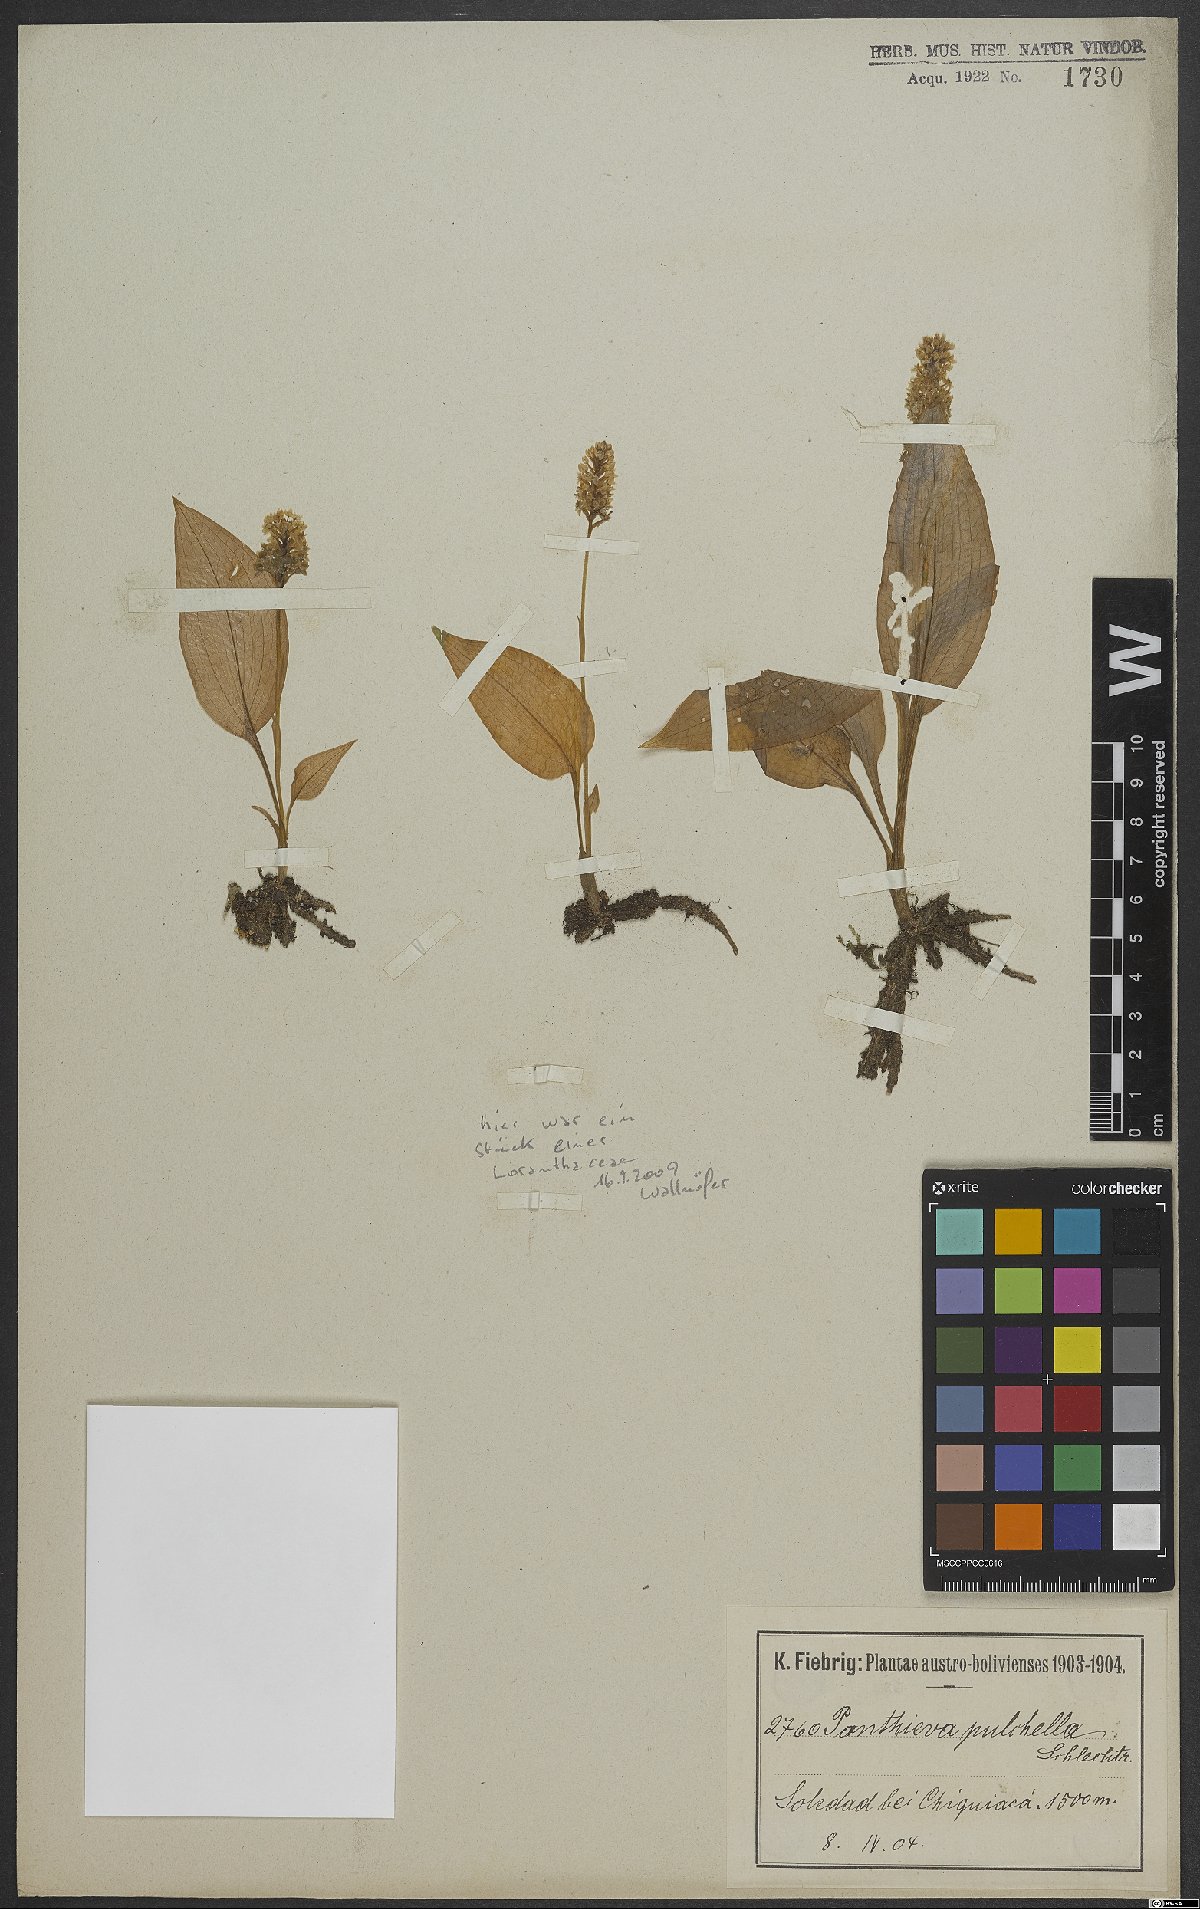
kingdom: Plantae
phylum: Tracheophyta
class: Liliopsida
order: Asparagales
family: Orchidaceae
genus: Ponthieva
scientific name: Ponthieva pulchella
